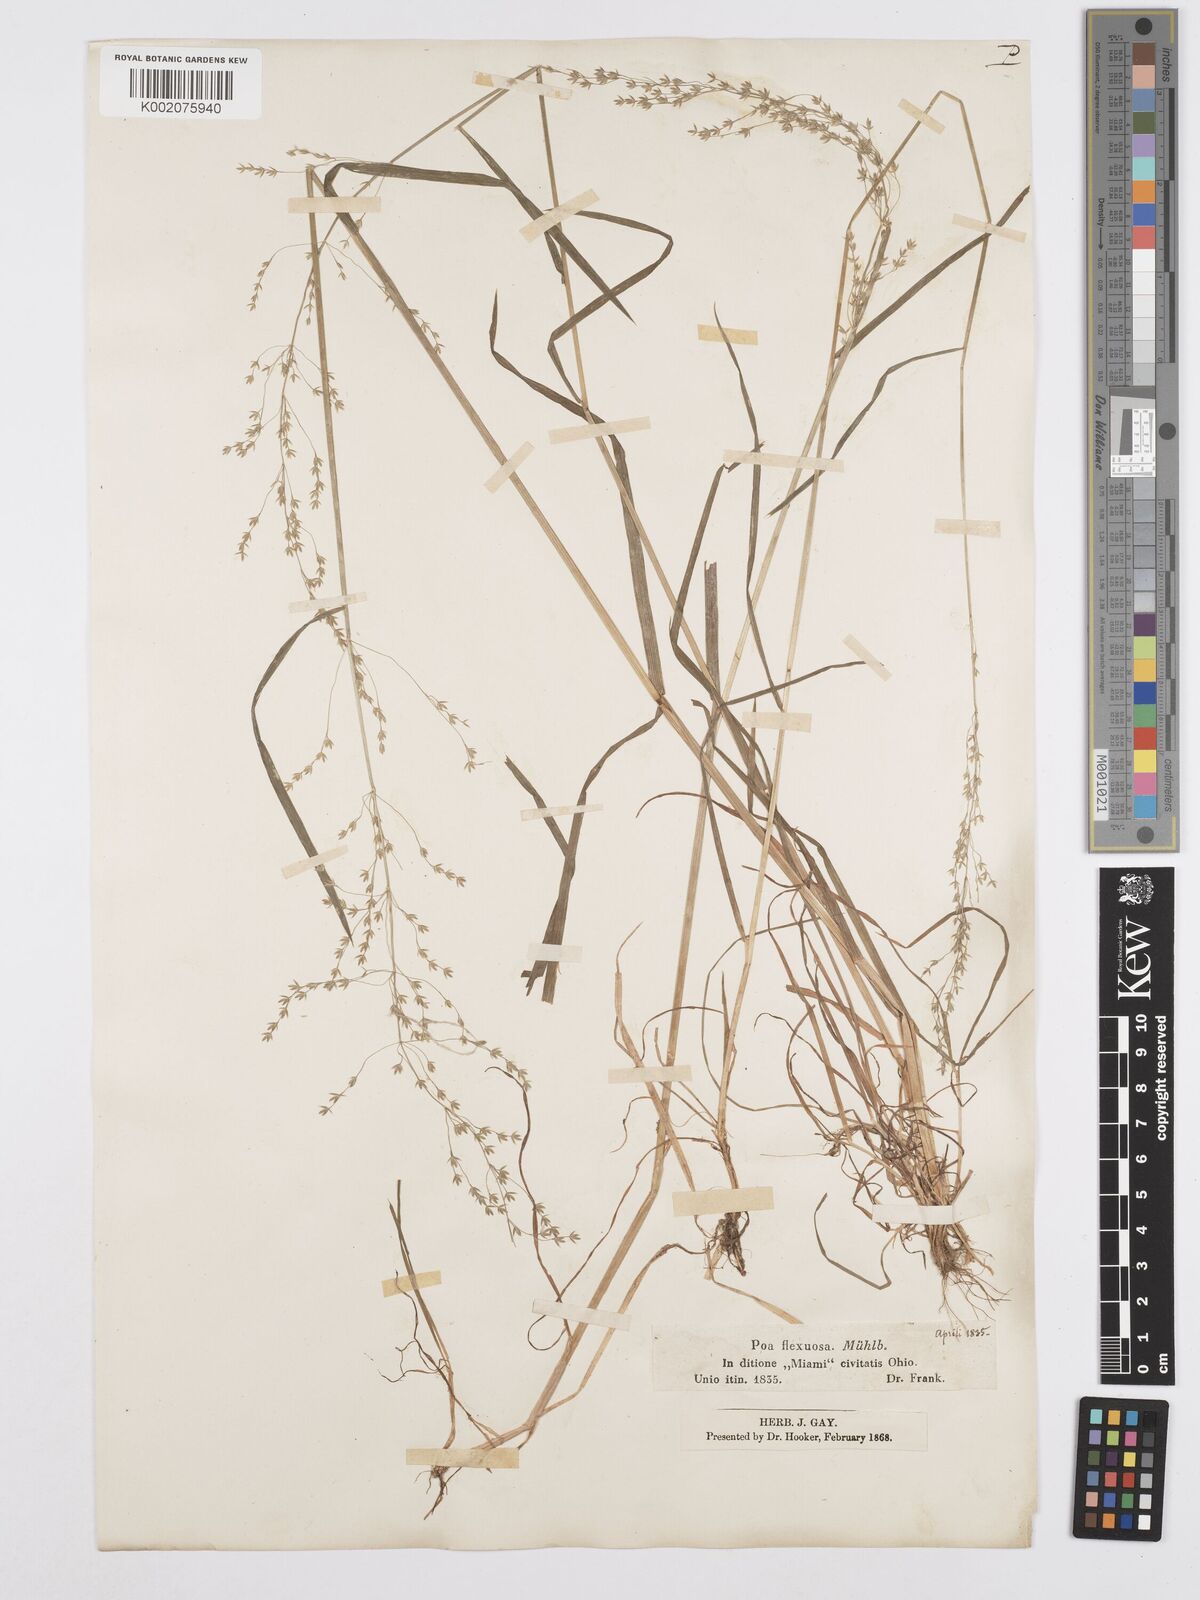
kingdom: Plantae
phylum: Tracheophyta
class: Liliopsida
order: Poales
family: Poaceae
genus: Poa
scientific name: Poa autumnalis
